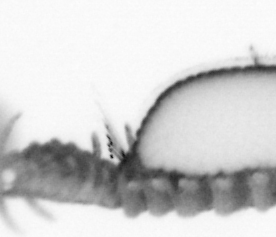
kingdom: Animalia
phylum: Annelida
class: Polychaeta
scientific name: Polychaeta
